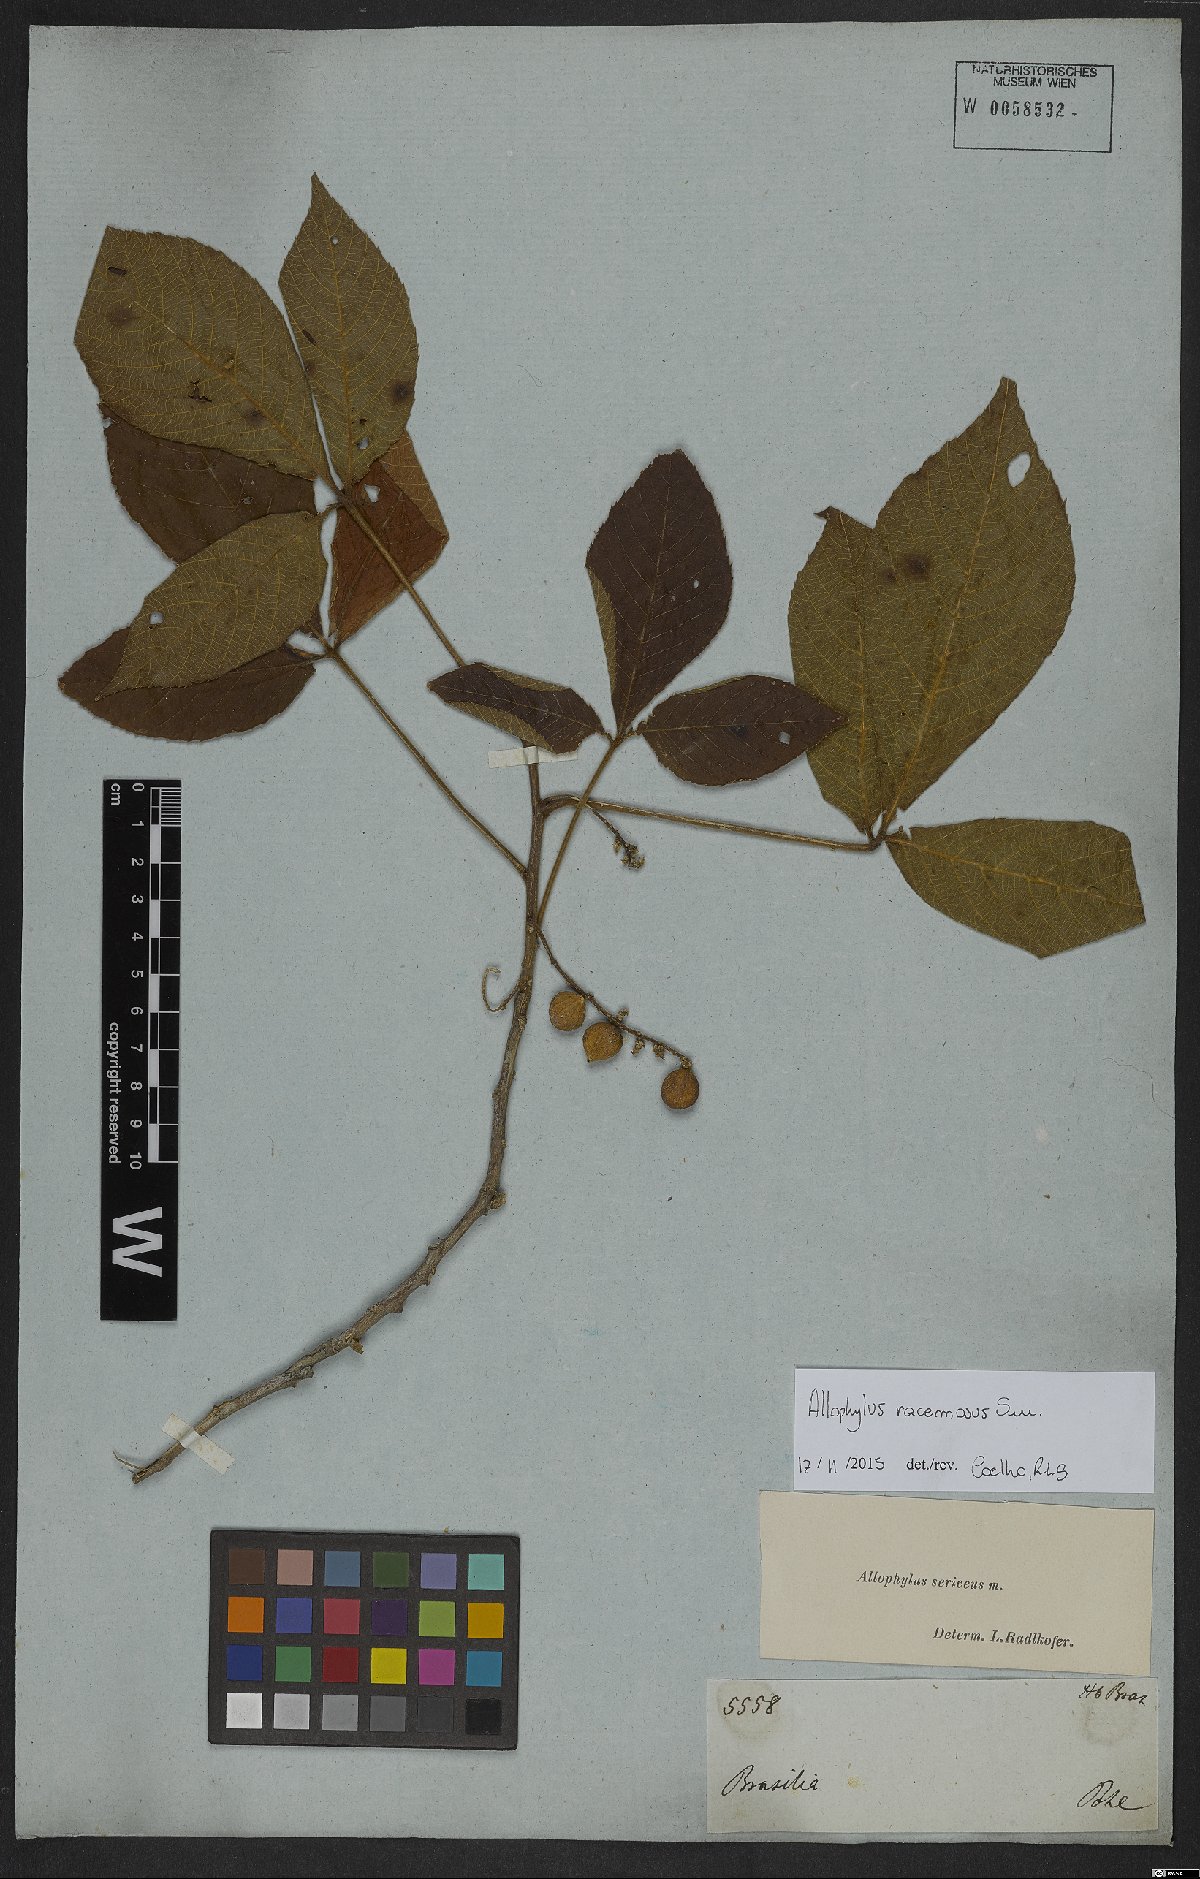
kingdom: Plantae
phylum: Tracheophyta
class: Magnoliopsida
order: Sapindales
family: Sapindaceae
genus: Allophylus
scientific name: Allophylus racemosus
